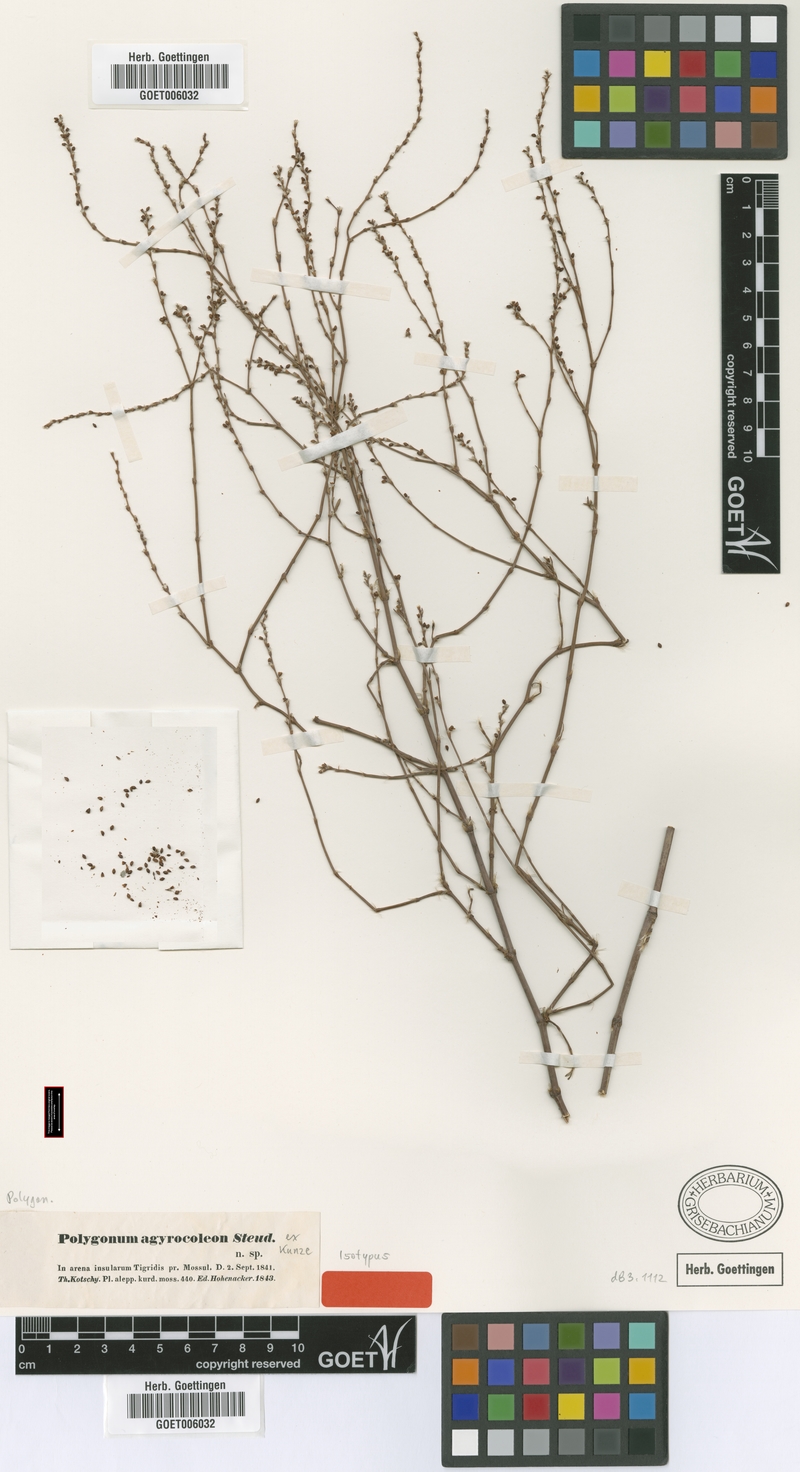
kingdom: Plantae
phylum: Tracheophyta
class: Magnoliopsida
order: Caryophyllales
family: Polygonaceae
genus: Polygonum
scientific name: Polygonum argyrocoleum
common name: Silversheath knotweed
